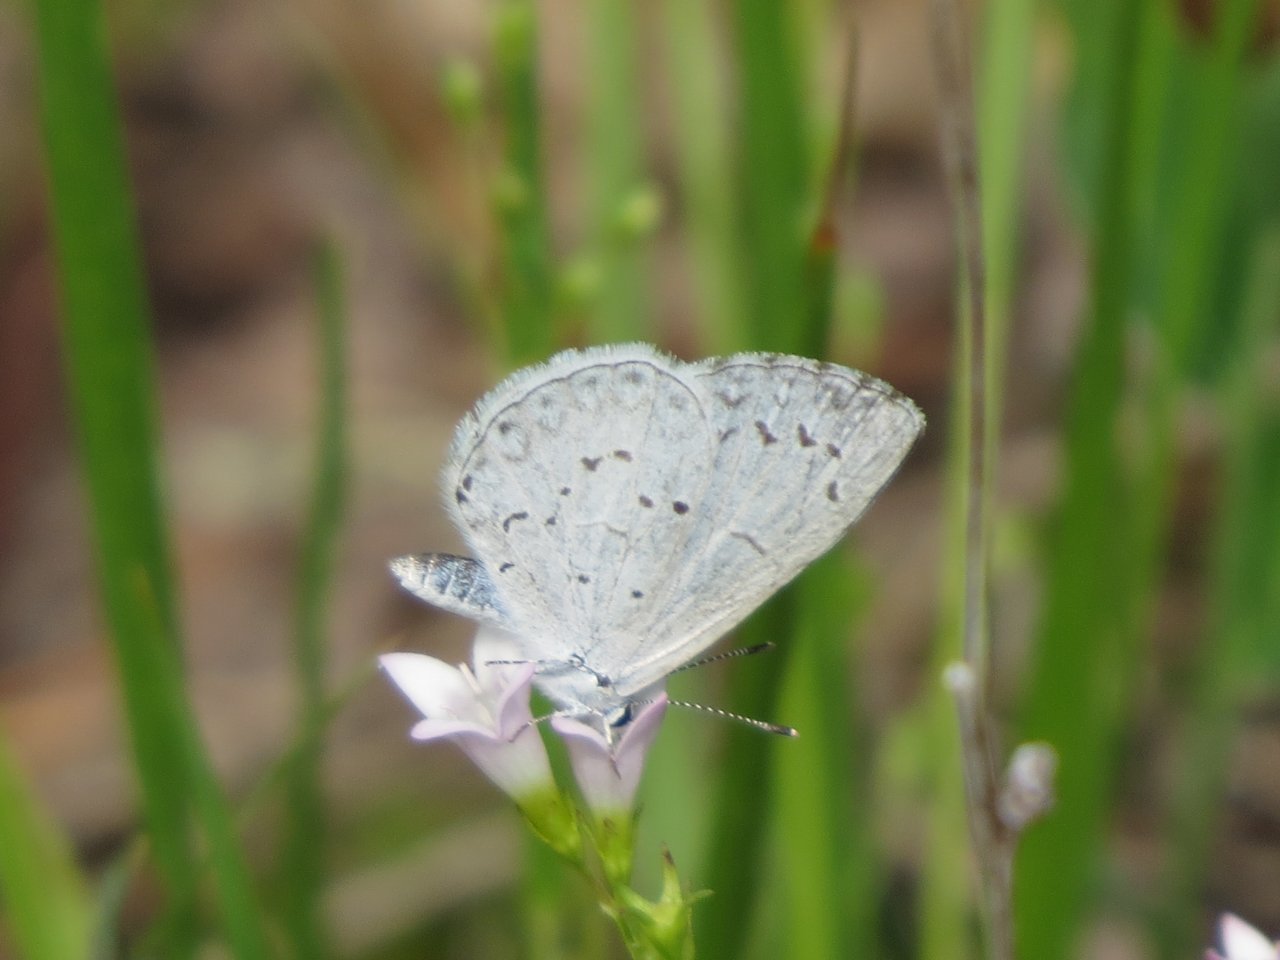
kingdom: Animalia
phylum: Arthropoda
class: Insecta
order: Lepidoptera
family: Lycaenidae
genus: Celastrina
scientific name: Celastrina
